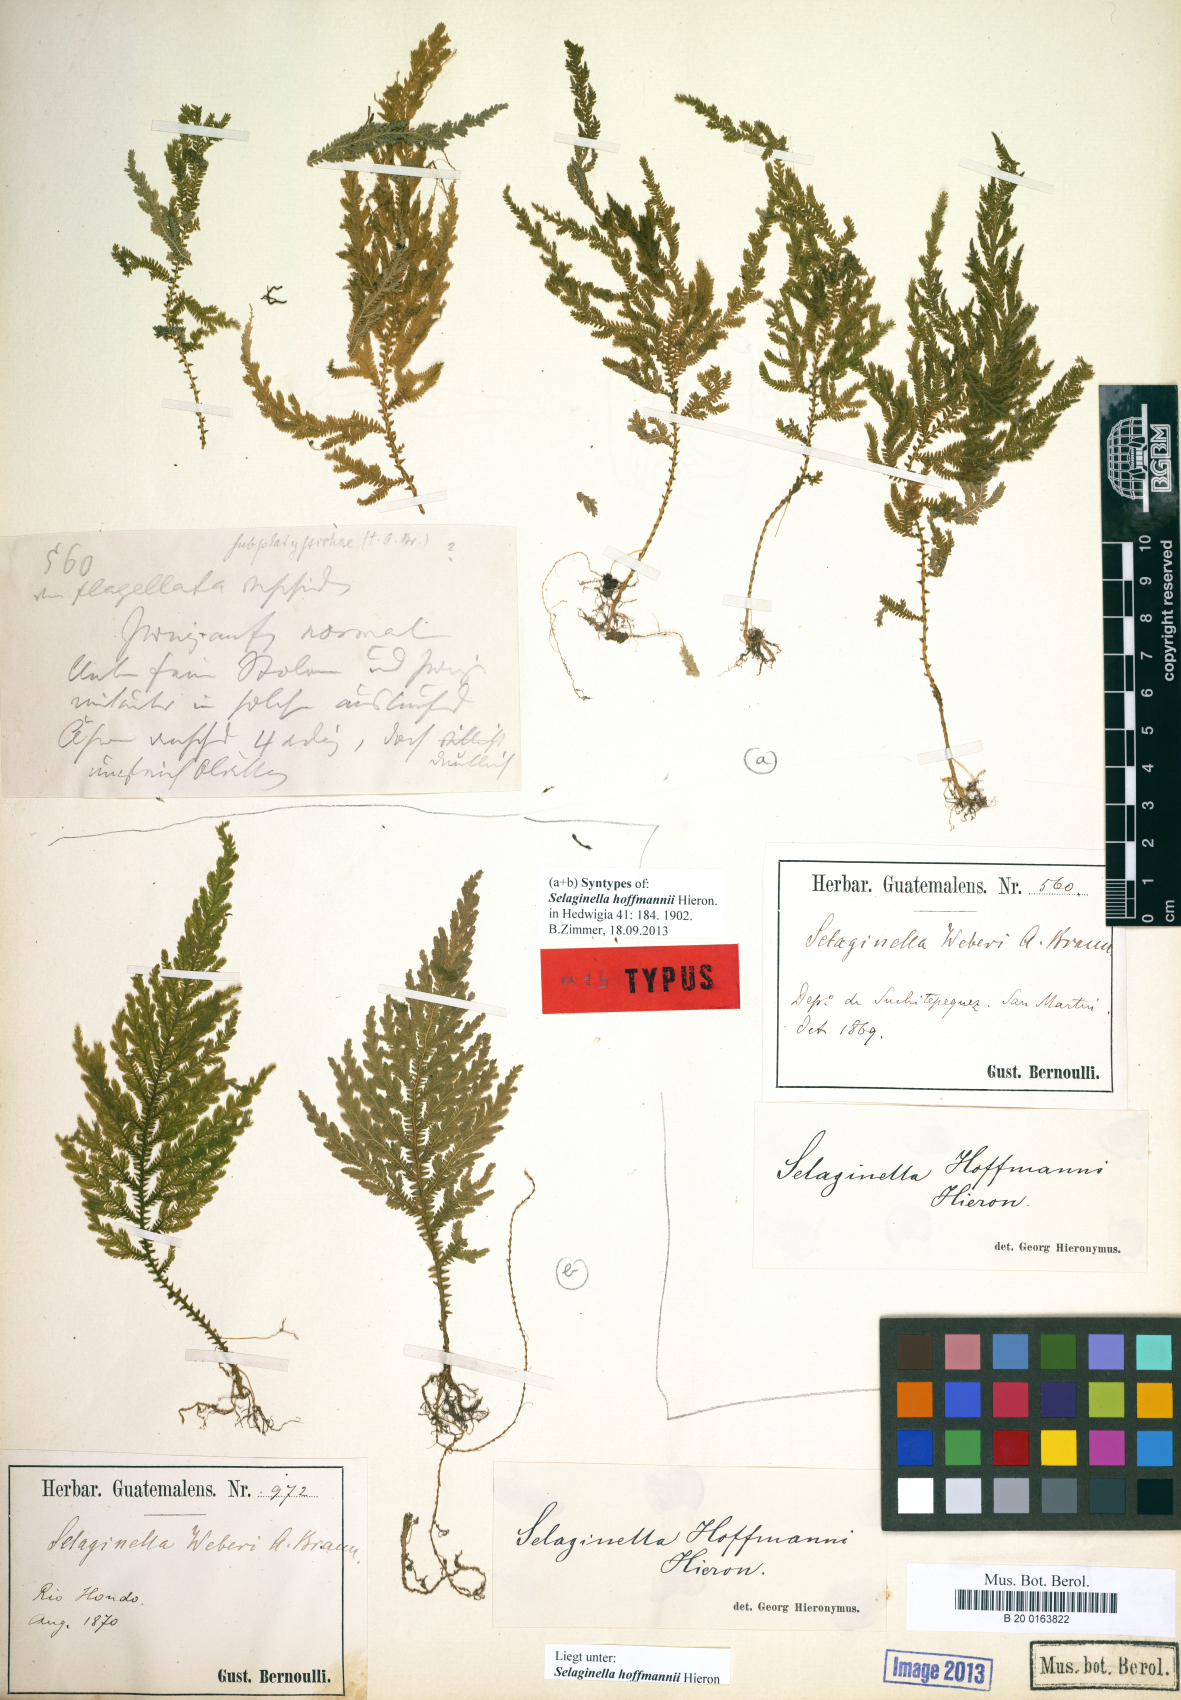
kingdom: Plantae
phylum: Tracheophyta
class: Lycopodiopsida
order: Selaginellales
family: Selaginellaceae
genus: Selaginella
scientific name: Selaginella hoffmannii
